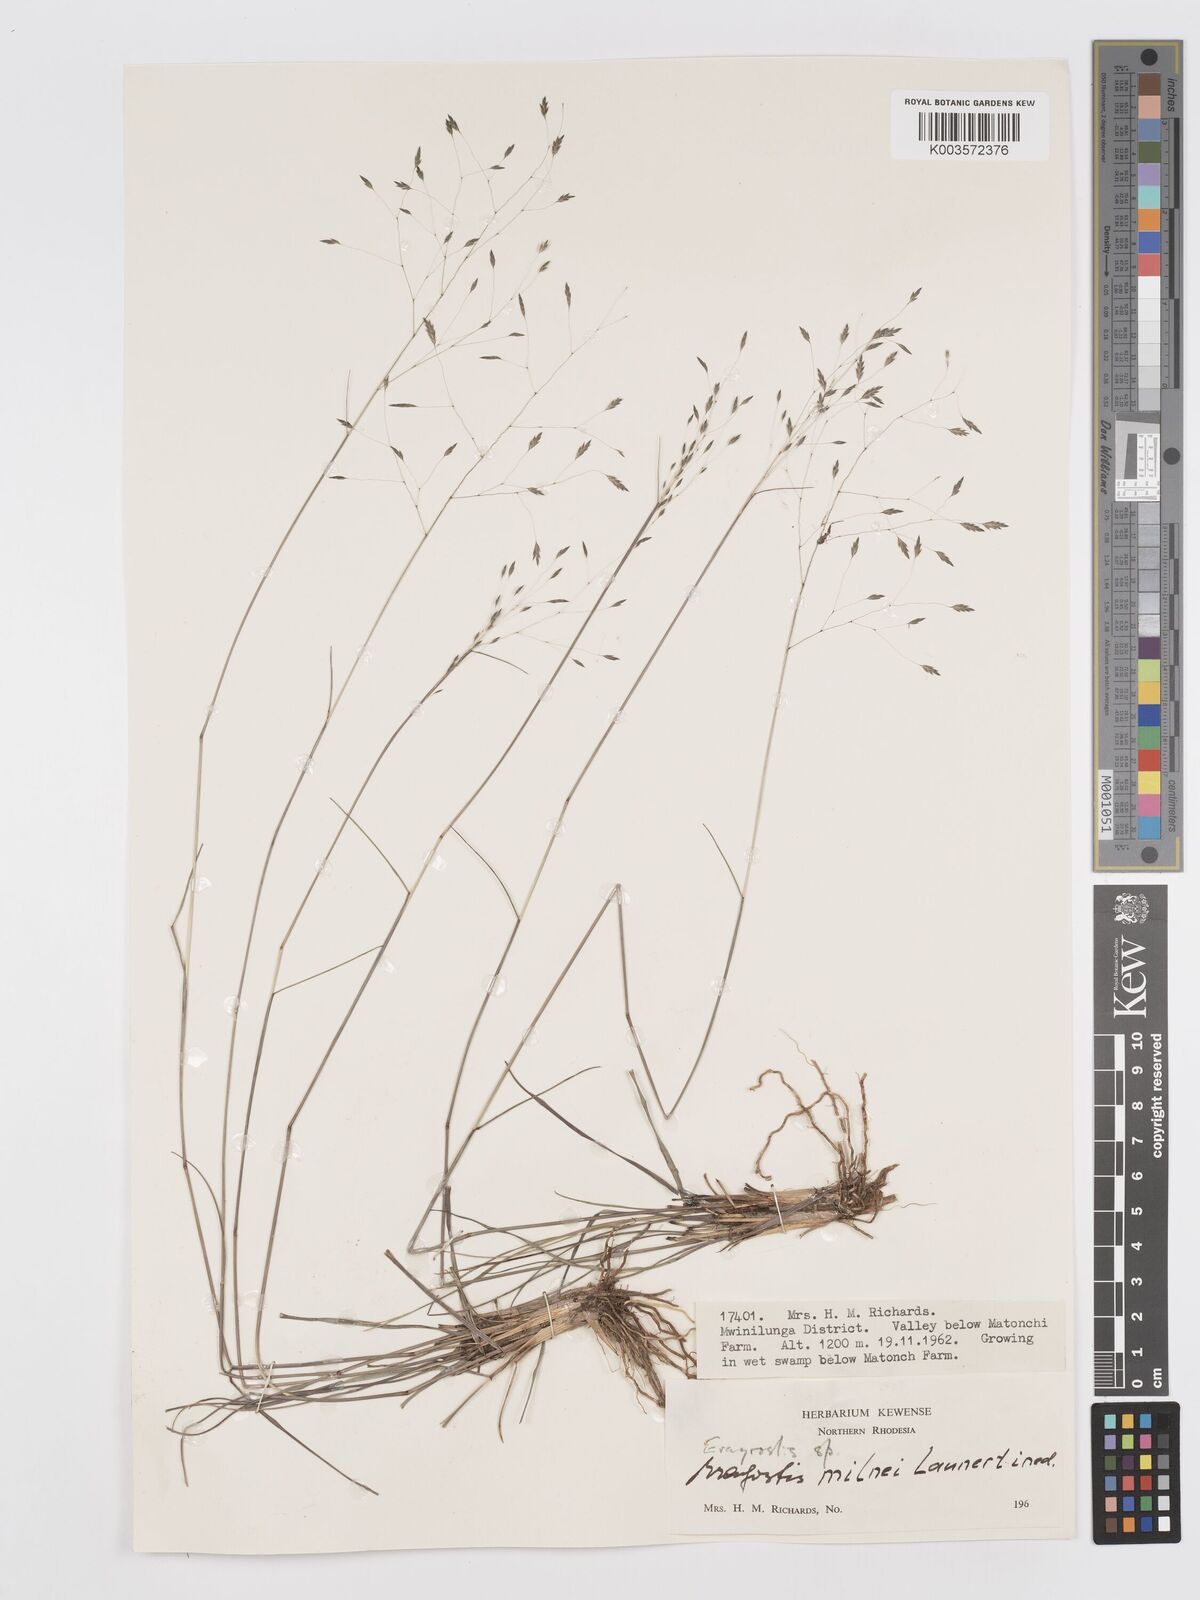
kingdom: Plantae
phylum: Tracheophyta
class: Liliopsida
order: Poales
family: Poaceae
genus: Eragrostis
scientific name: Eragrostis milnei
